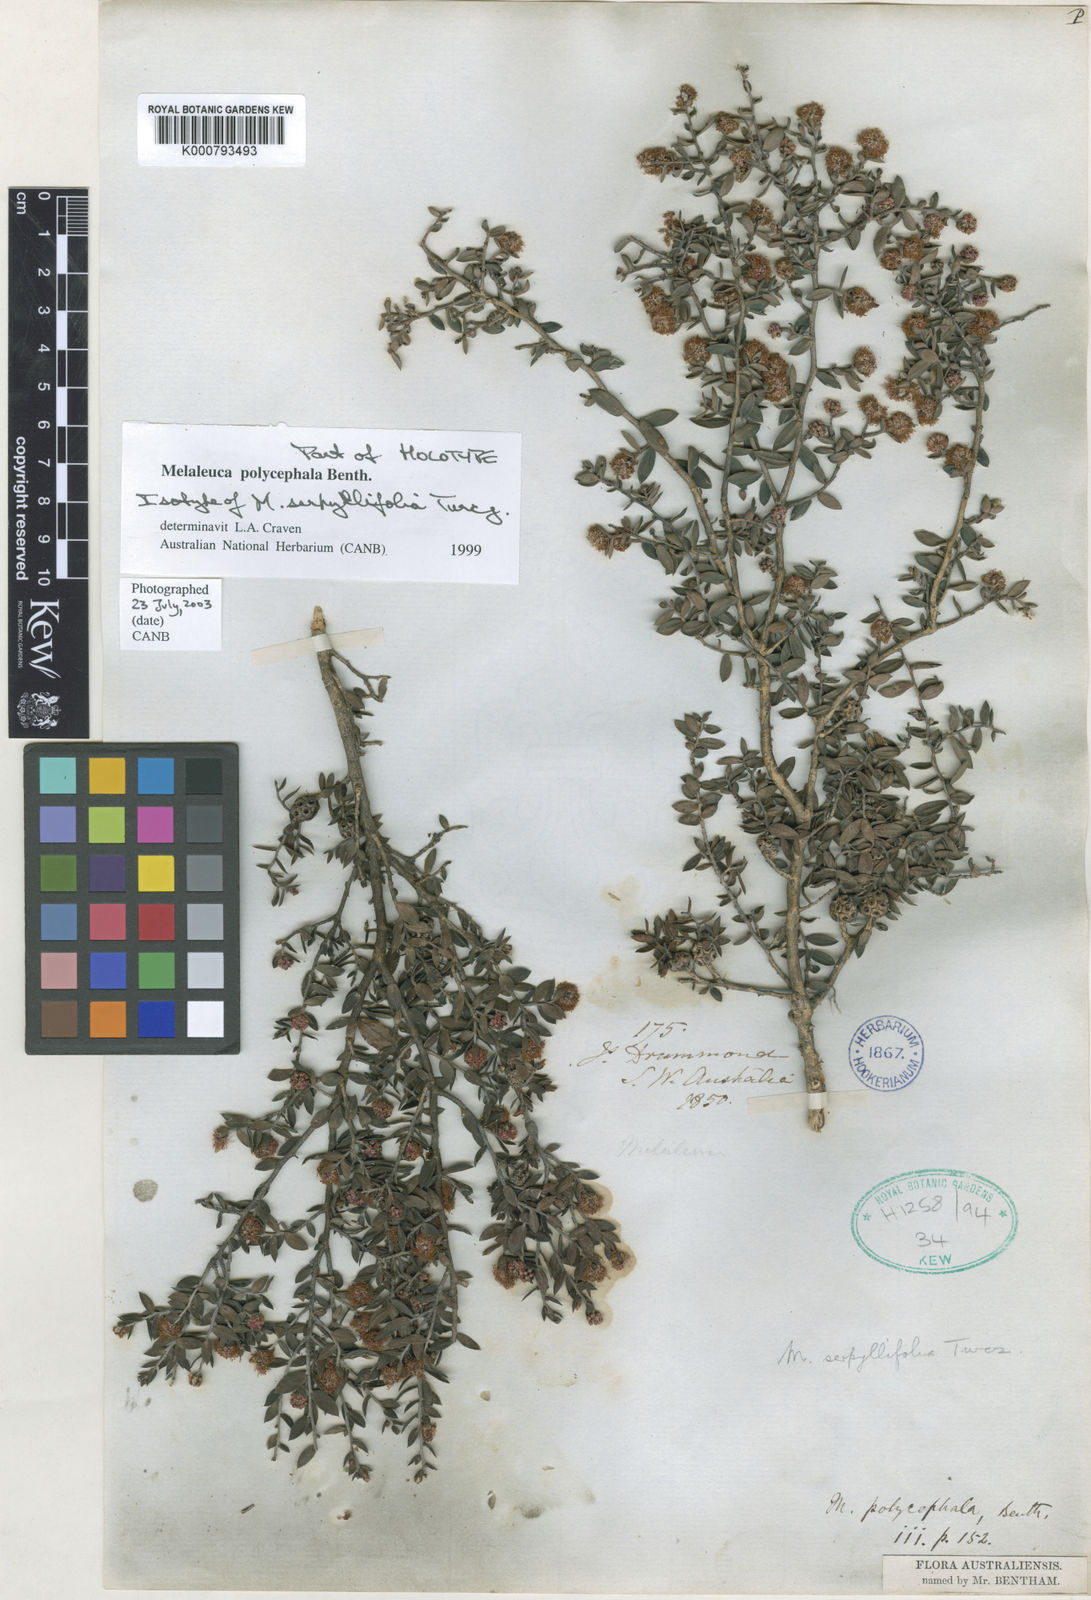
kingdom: Plantae
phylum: Tracheophyta
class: Magnoliopsida
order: Myrtales
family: Myrtaceae
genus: Melaleuca
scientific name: Melaleuca polycephala
